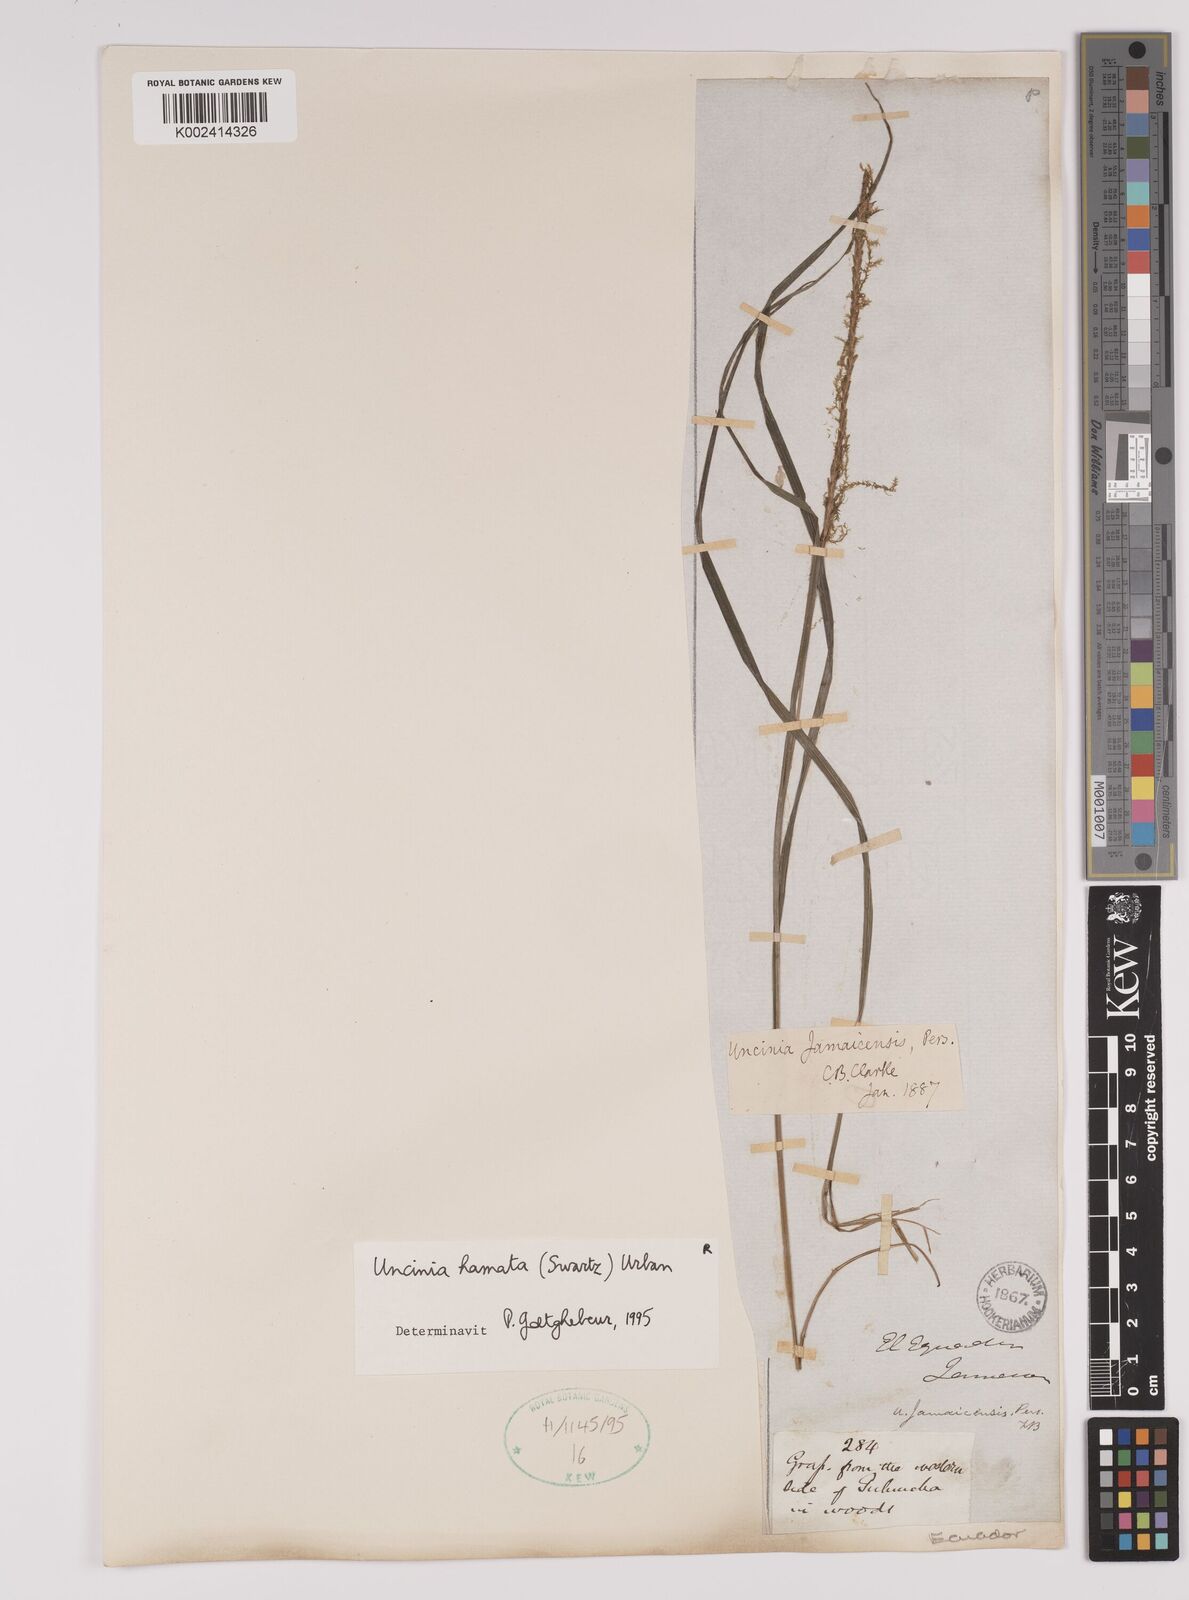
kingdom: Plantae
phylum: Tracheophyta
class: Liliopsida
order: Poales
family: Cyperaceae
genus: Carex
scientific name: Carex hamata
